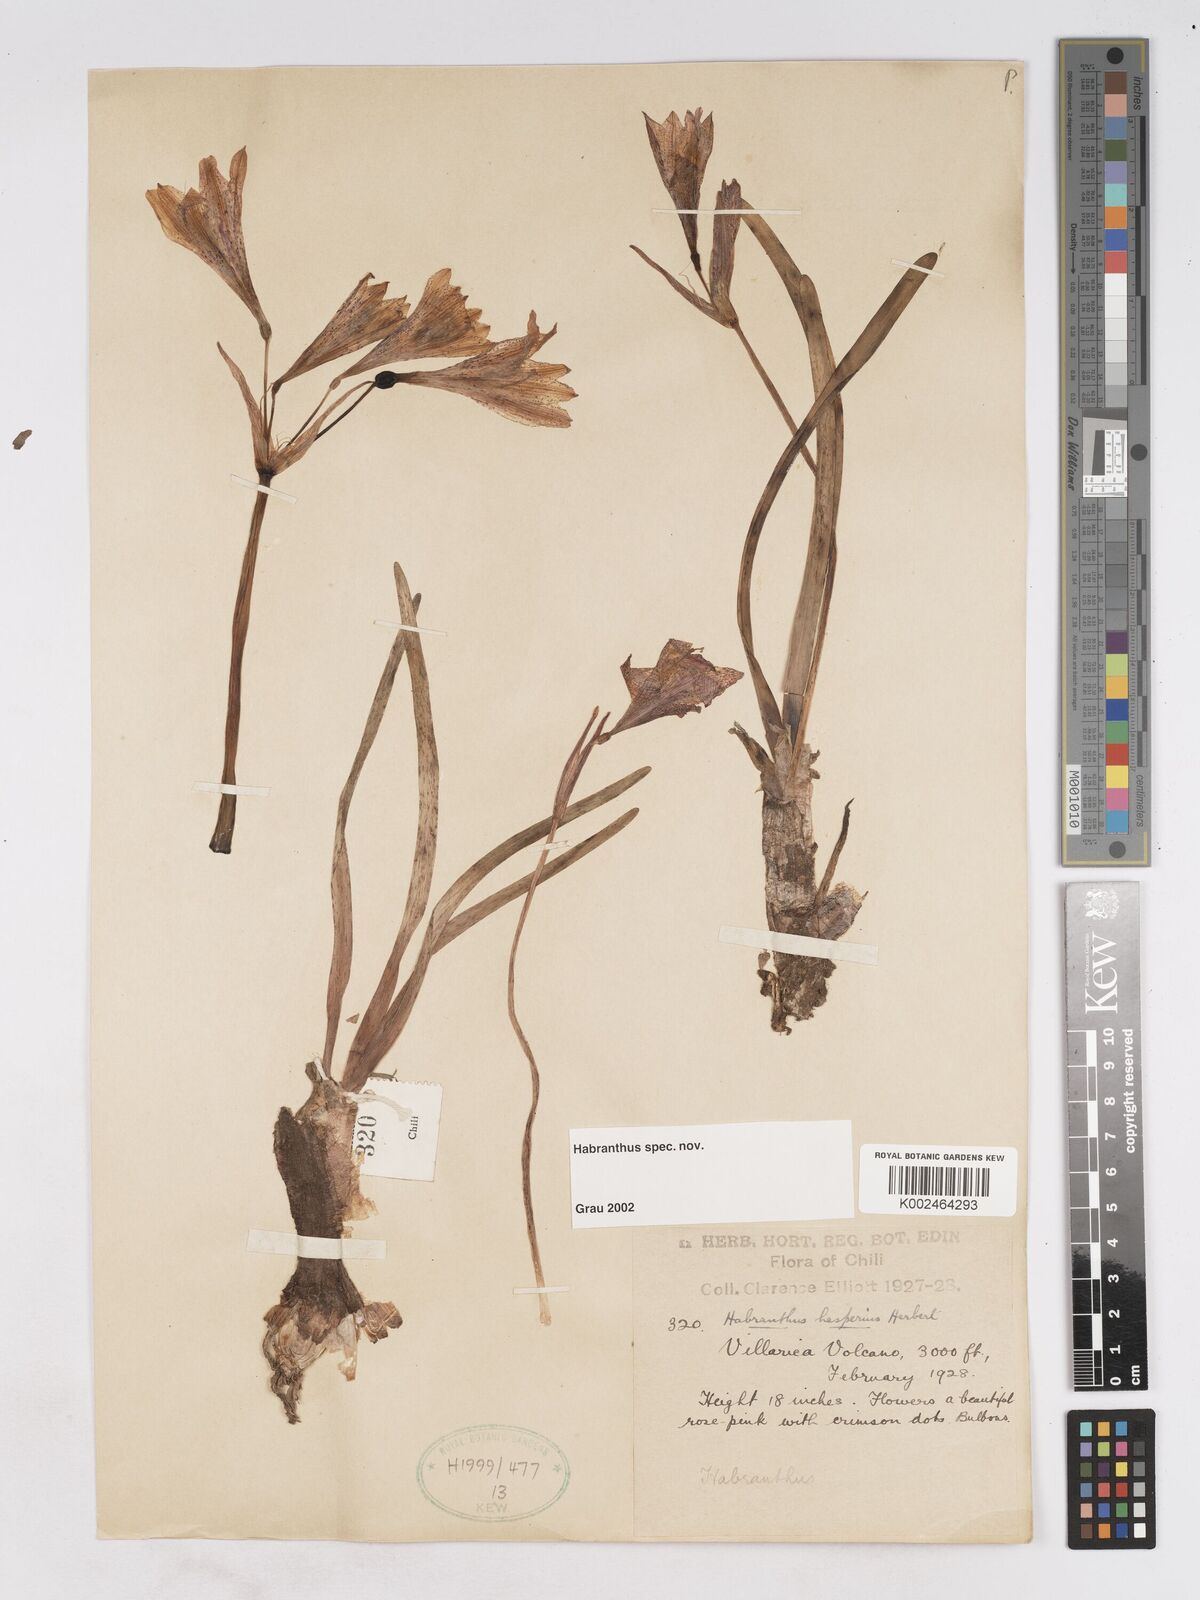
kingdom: Plantae
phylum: Tracheophyta
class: Liliopsida
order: Asparagales
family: Amaryllidaceae
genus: Zephyranthes
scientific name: Zephyranthes
